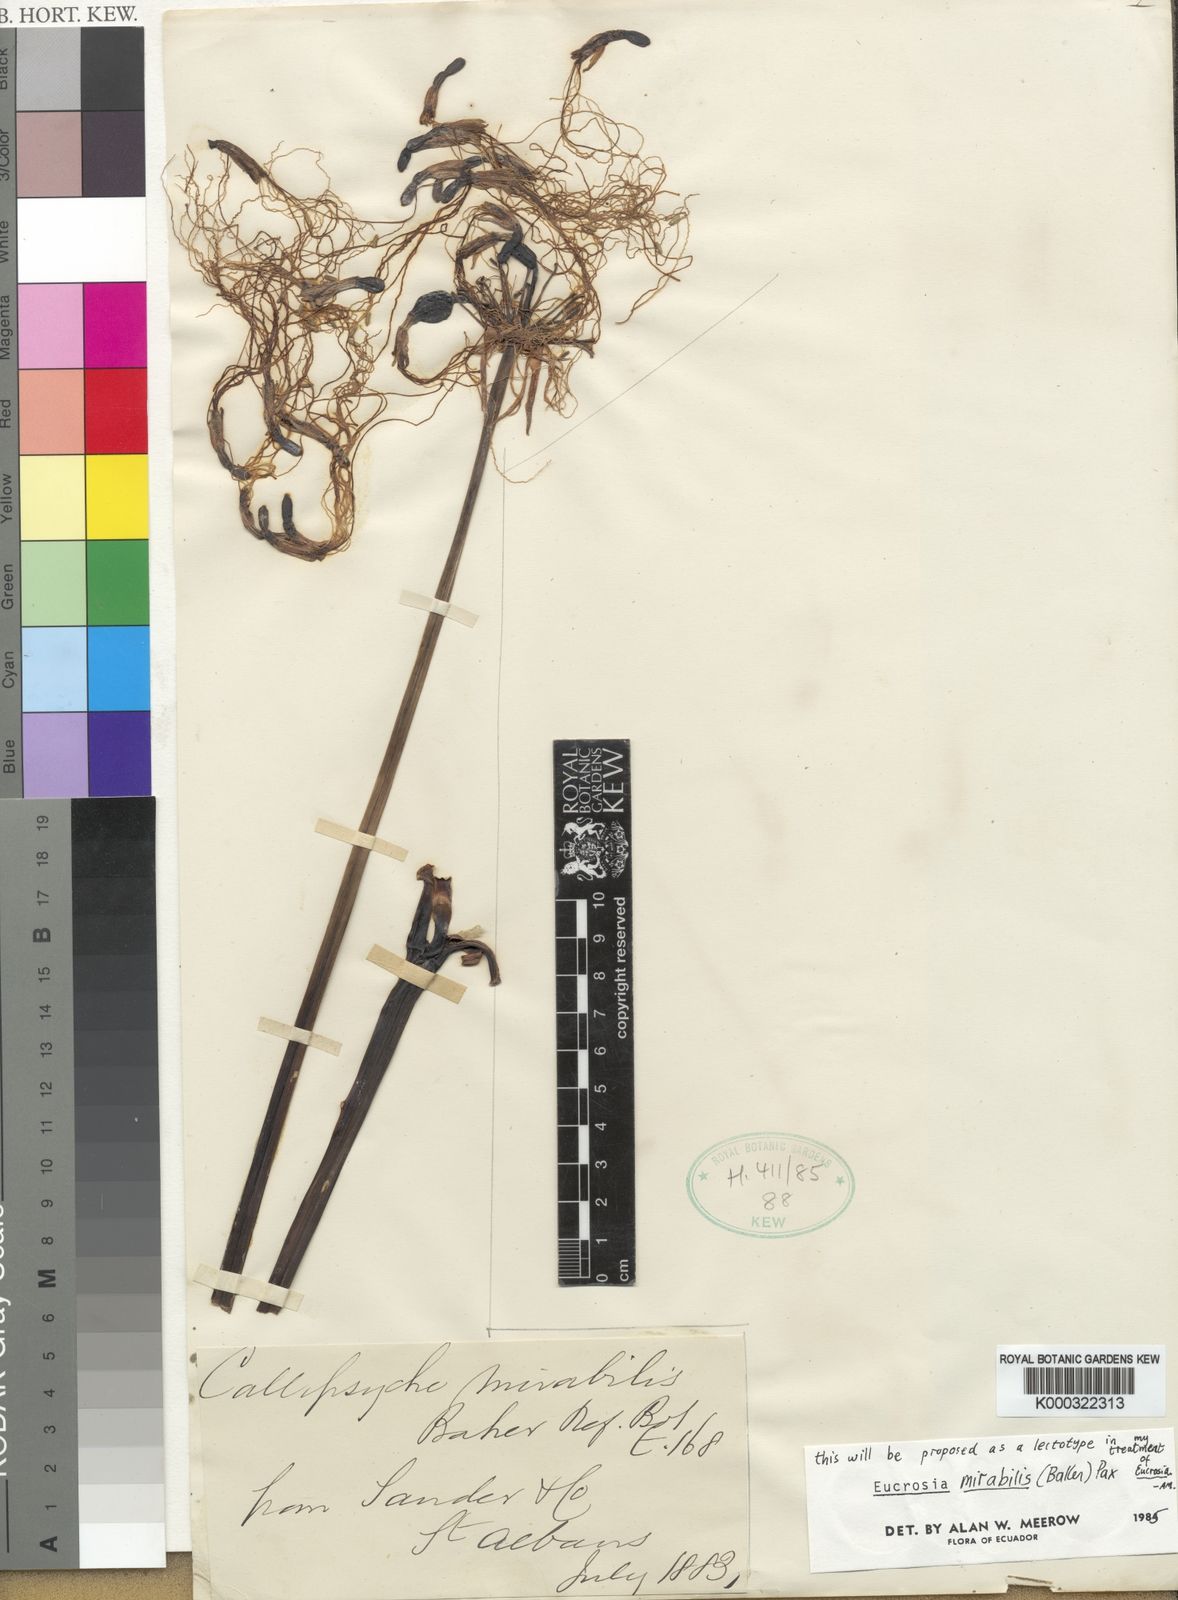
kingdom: Plantae
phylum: Tracheophyta
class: Liliopsida
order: Asparagales
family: Amaryllidaceae
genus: Eucrosia
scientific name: Eucrosia mirabilis
